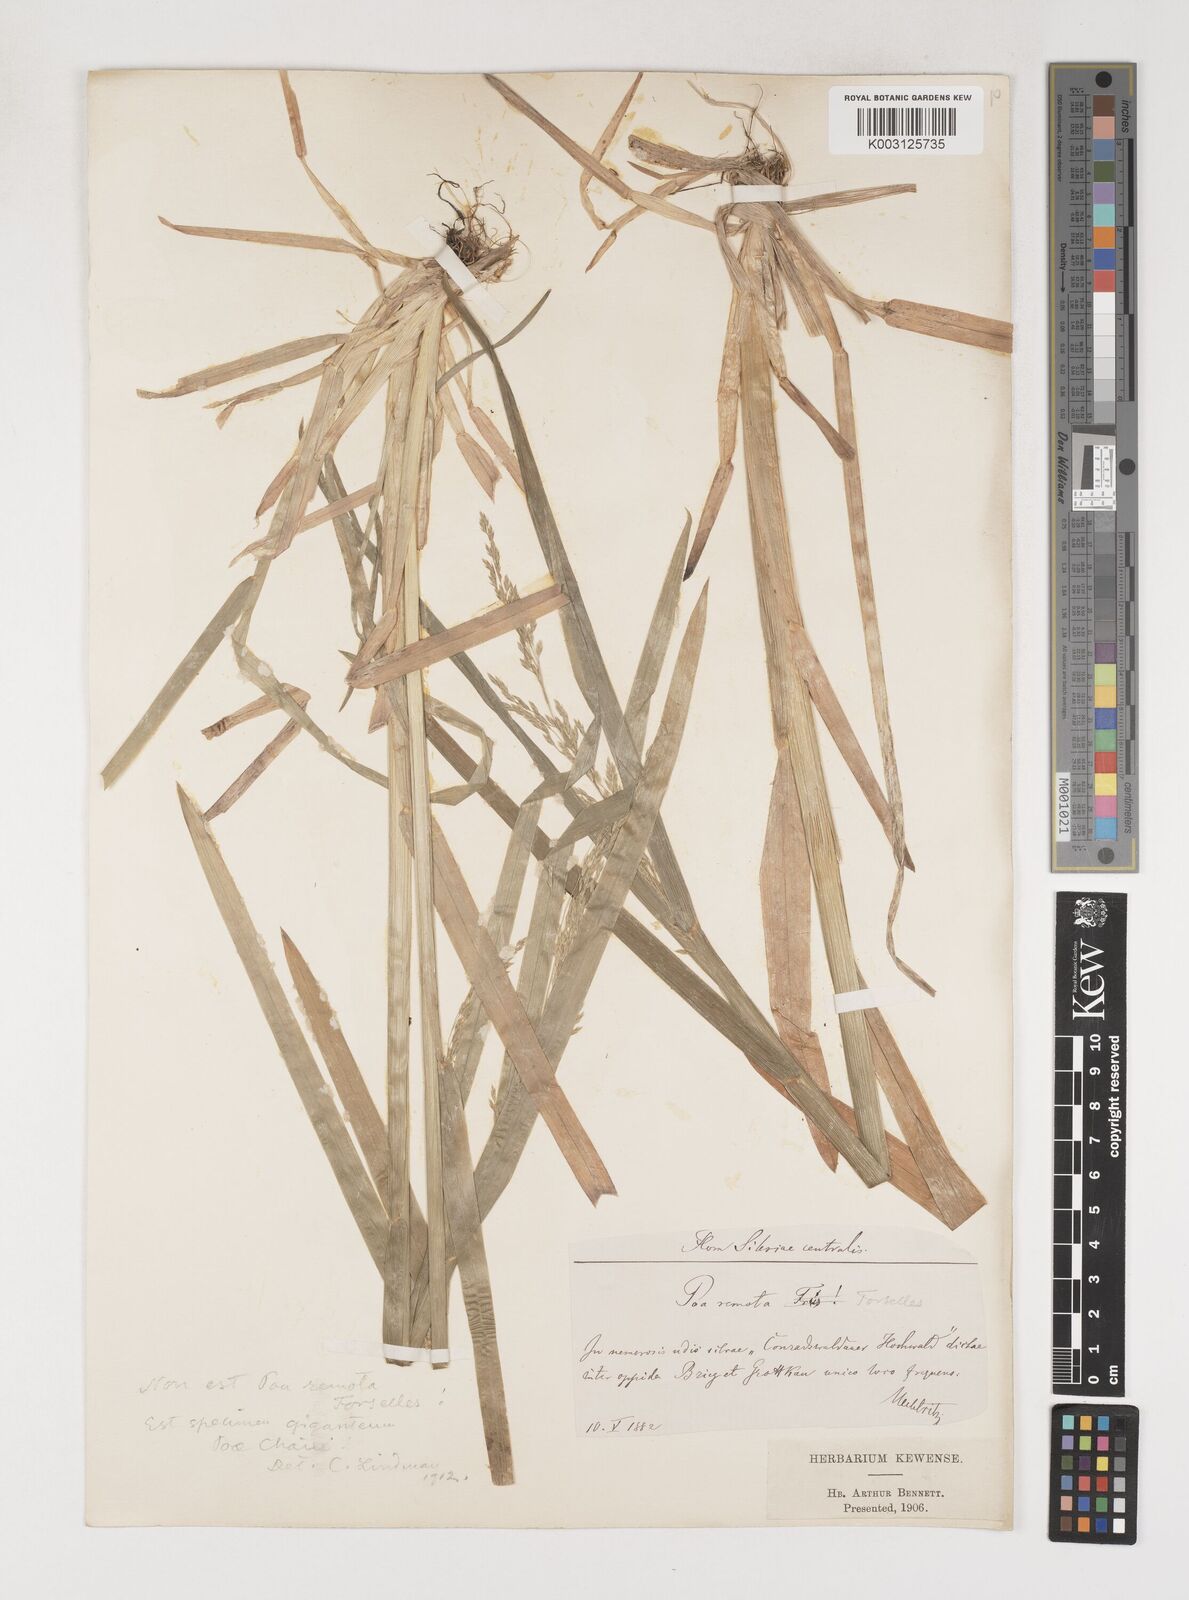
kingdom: Plantae
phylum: Tracheophyta
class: Liliopsida
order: Poales
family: Poaceae
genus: Poa
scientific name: Poa chaixii
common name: Broad-leaved meadow-grass
